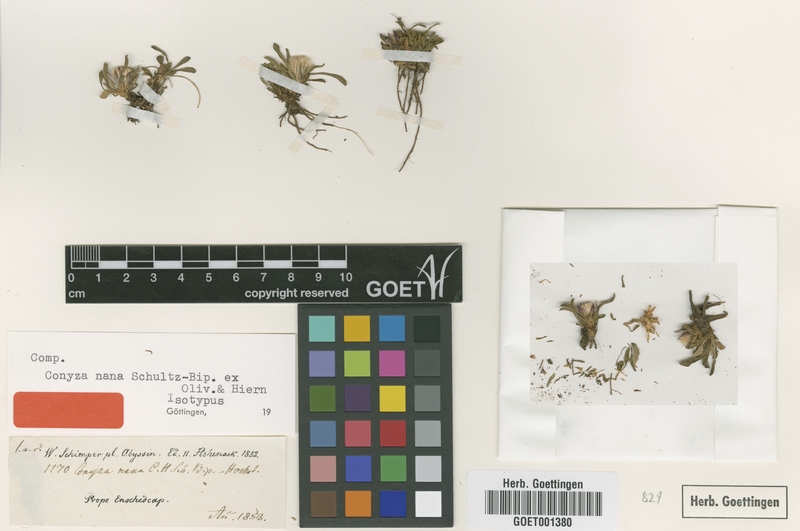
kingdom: Plantae
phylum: Tracheophyta
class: Magnoliopsida
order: Asterales
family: Asteraceae
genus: Conyza
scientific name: Conyza nana
